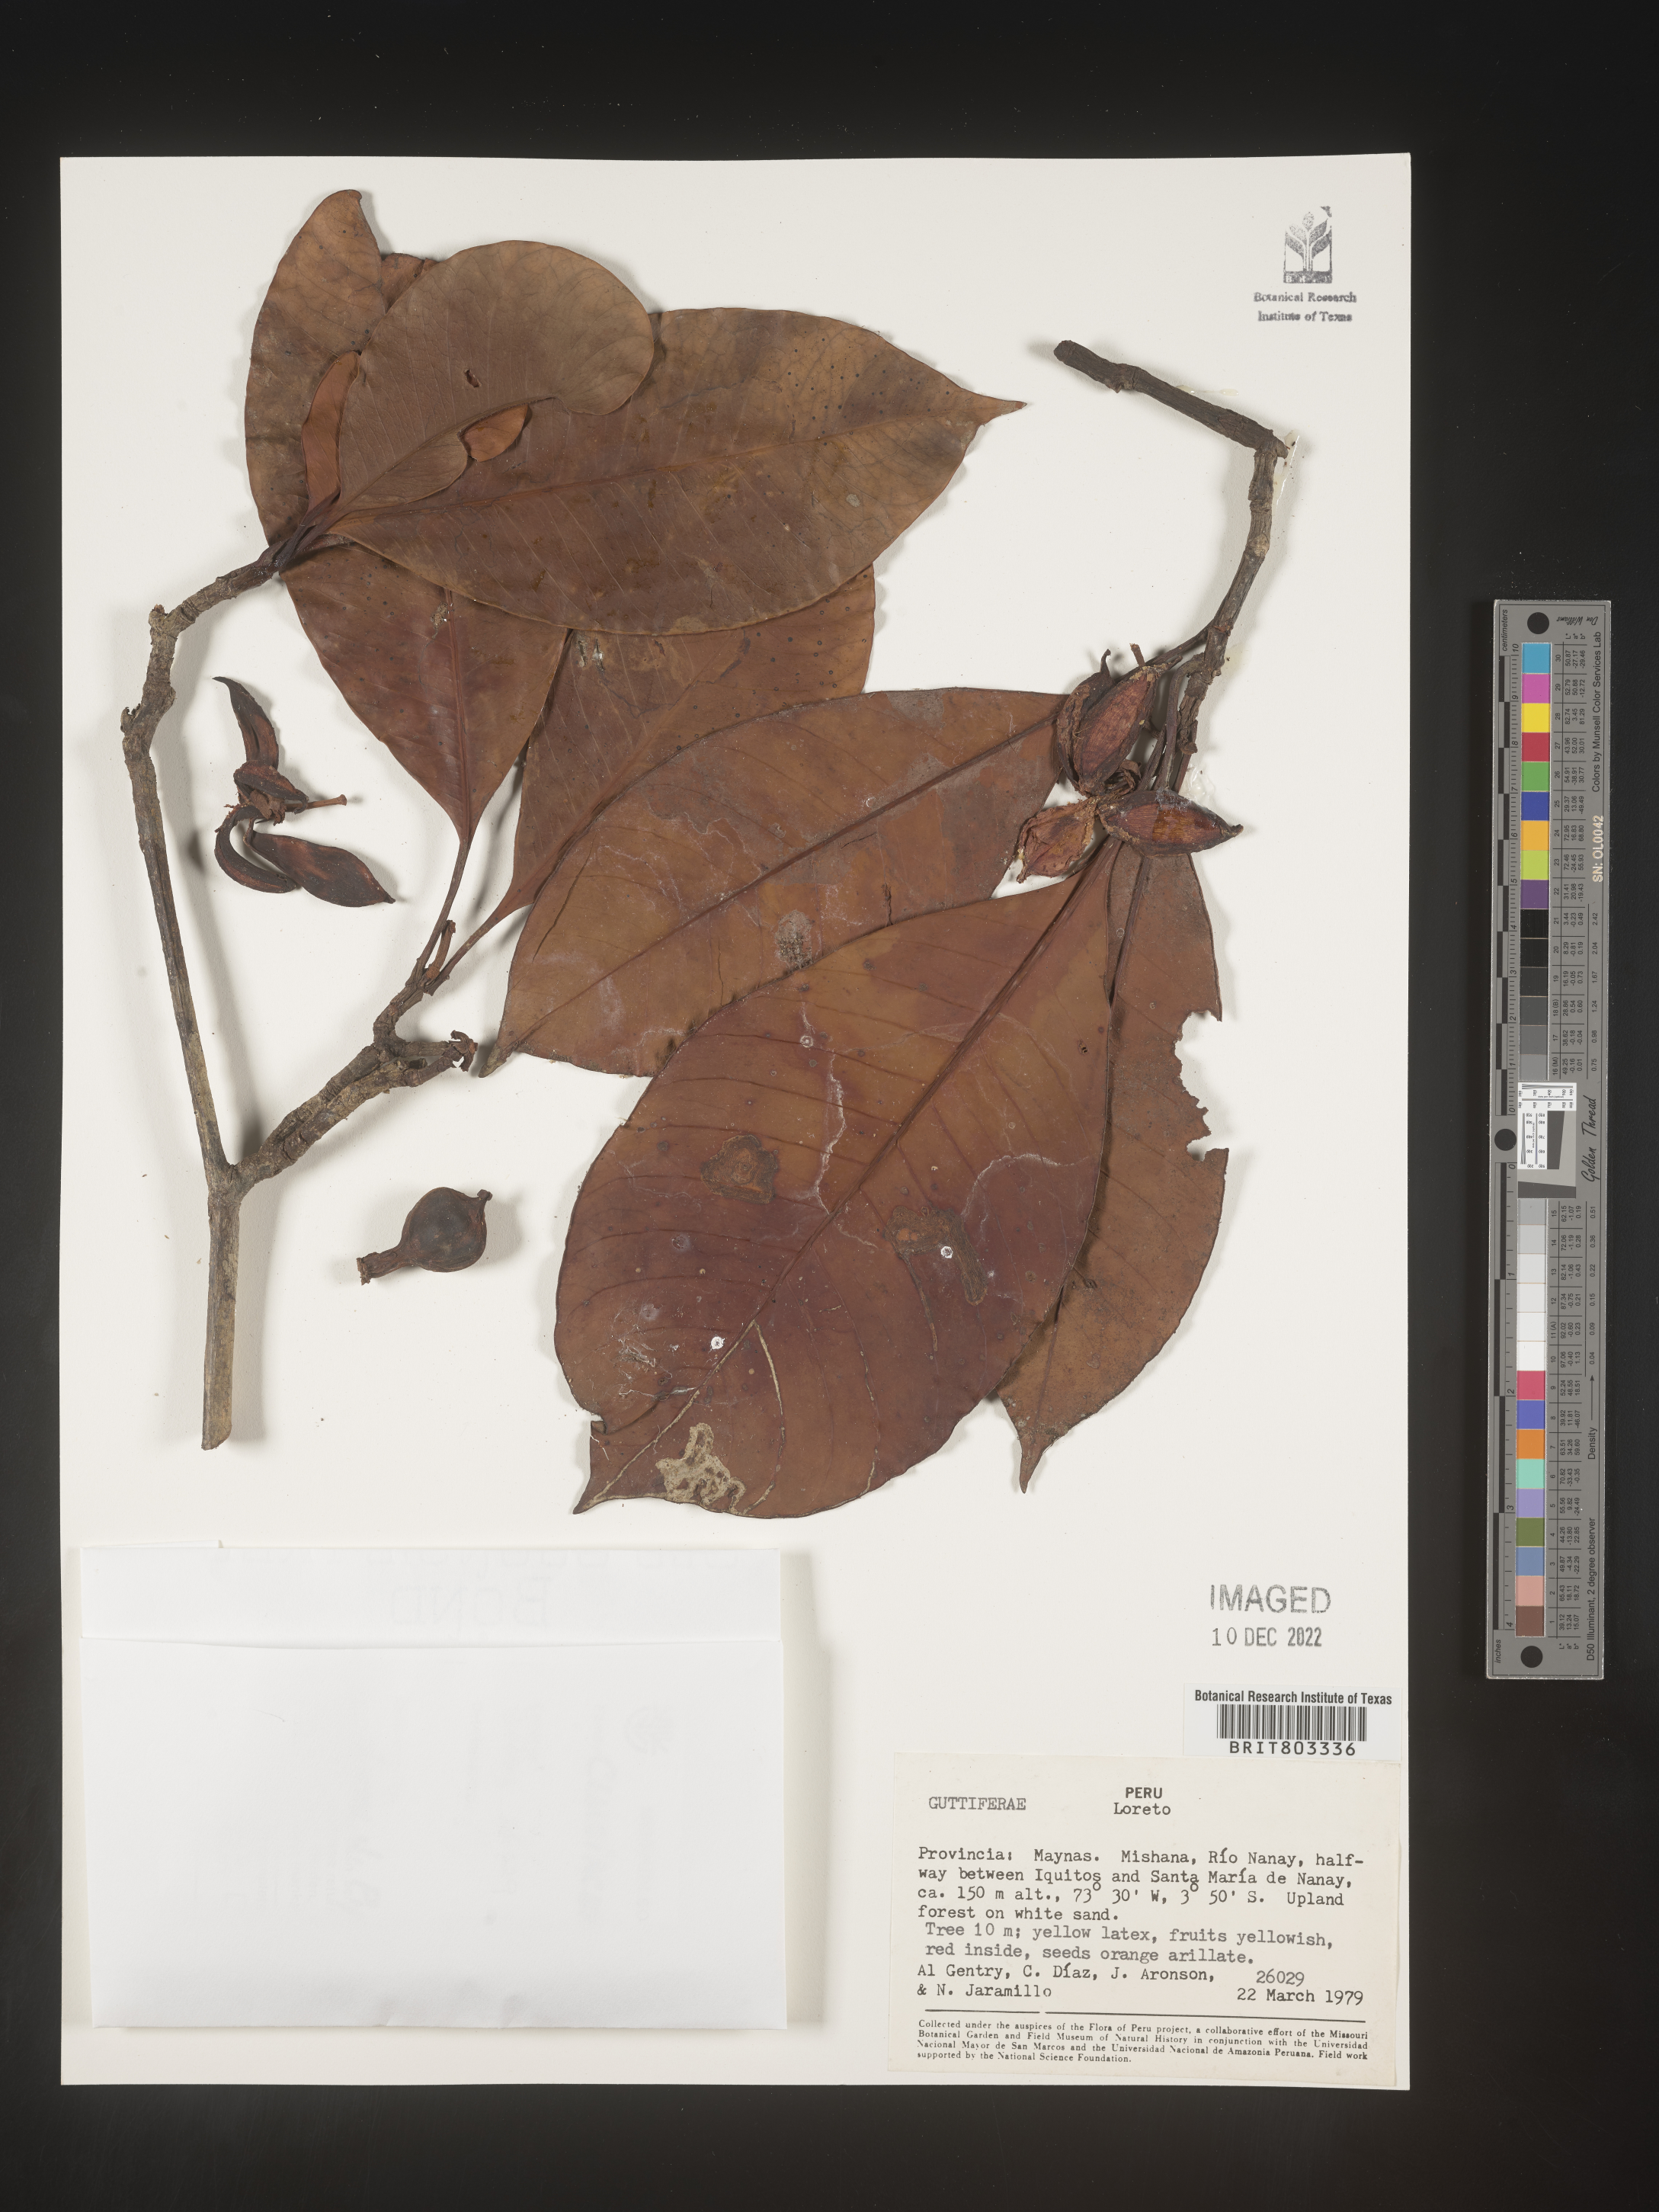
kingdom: Plantae
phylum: Tracheophyta
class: Magnoliopsida
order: Malpighiales
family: Clusiaceae
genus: Tovomita
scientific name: Tovomita
